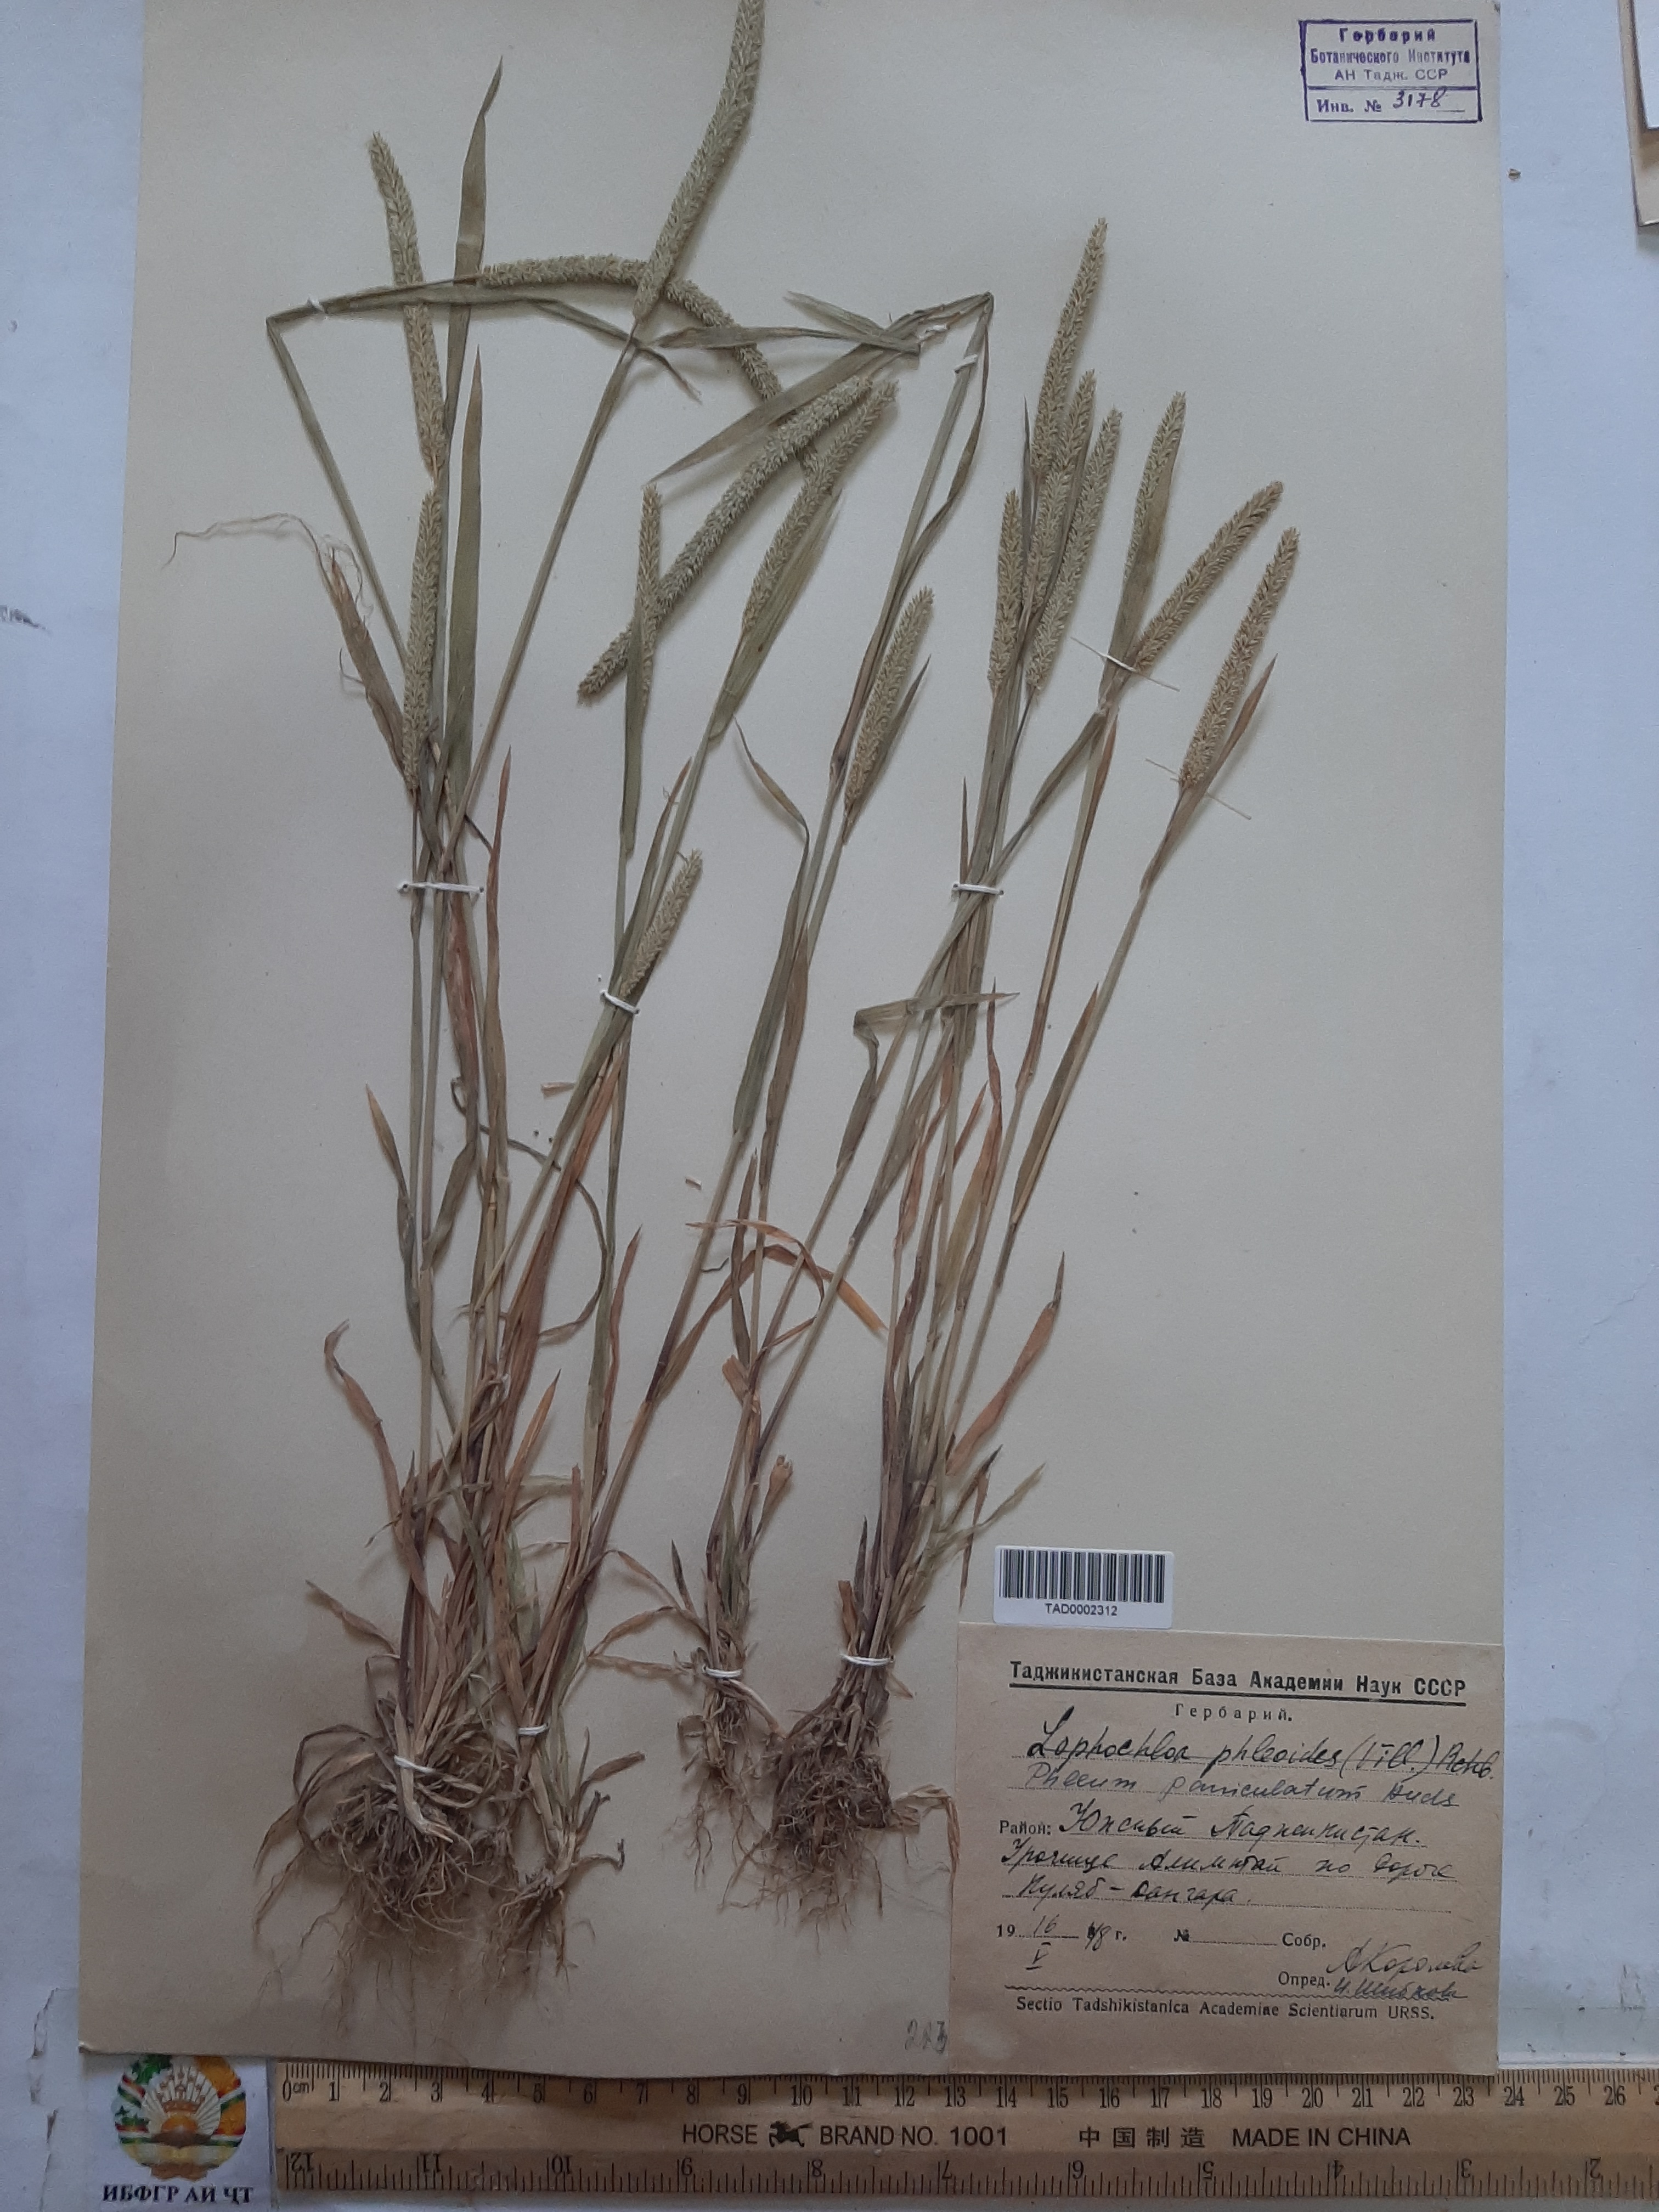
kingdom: Plantae
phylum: Tracheophyta
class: Liliopsida
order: Poales
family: Poaceae
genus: Phleum
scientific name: Phleum paniculatum
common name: British timothy
